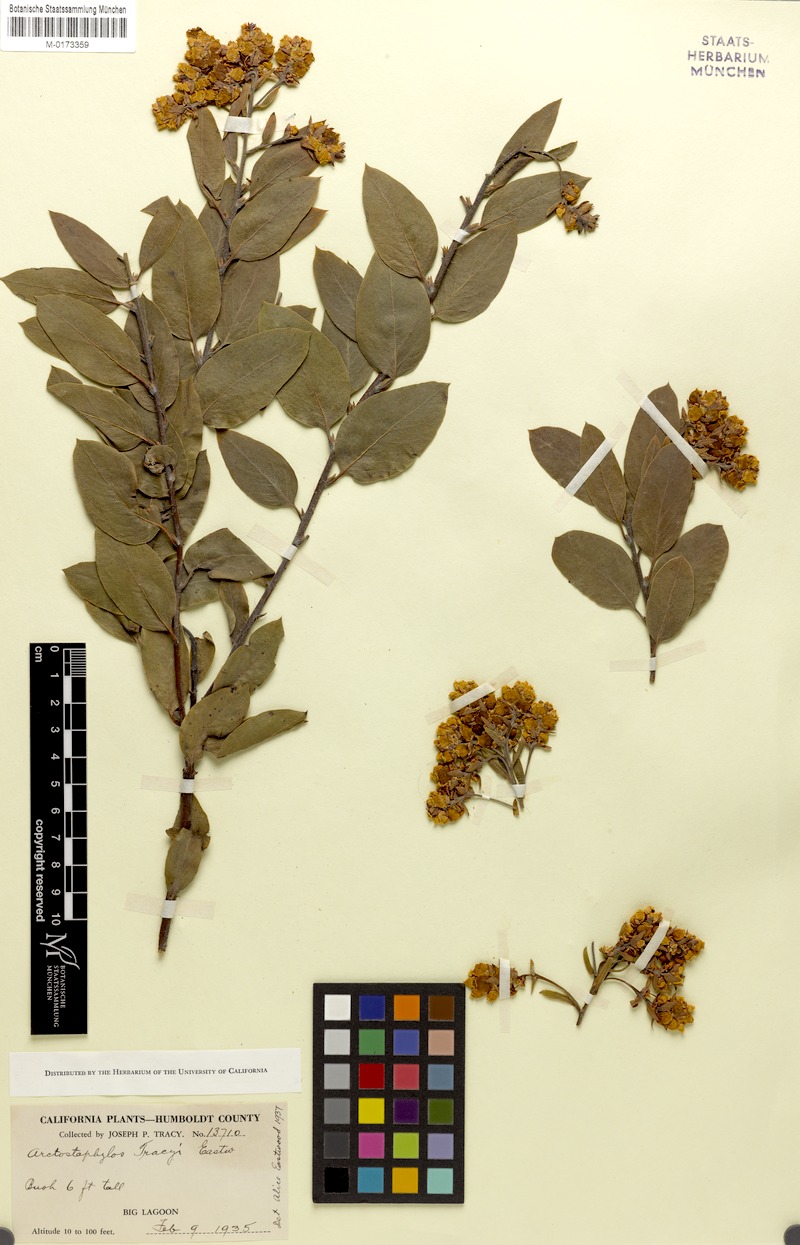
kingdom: Plantae
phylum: Tracheophyta
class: Magnoliopsida
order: Ericales
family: Ericaceae
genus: Arctostaphylos
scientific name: Arctostaphylos columbiana
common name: Bristly bearberry
